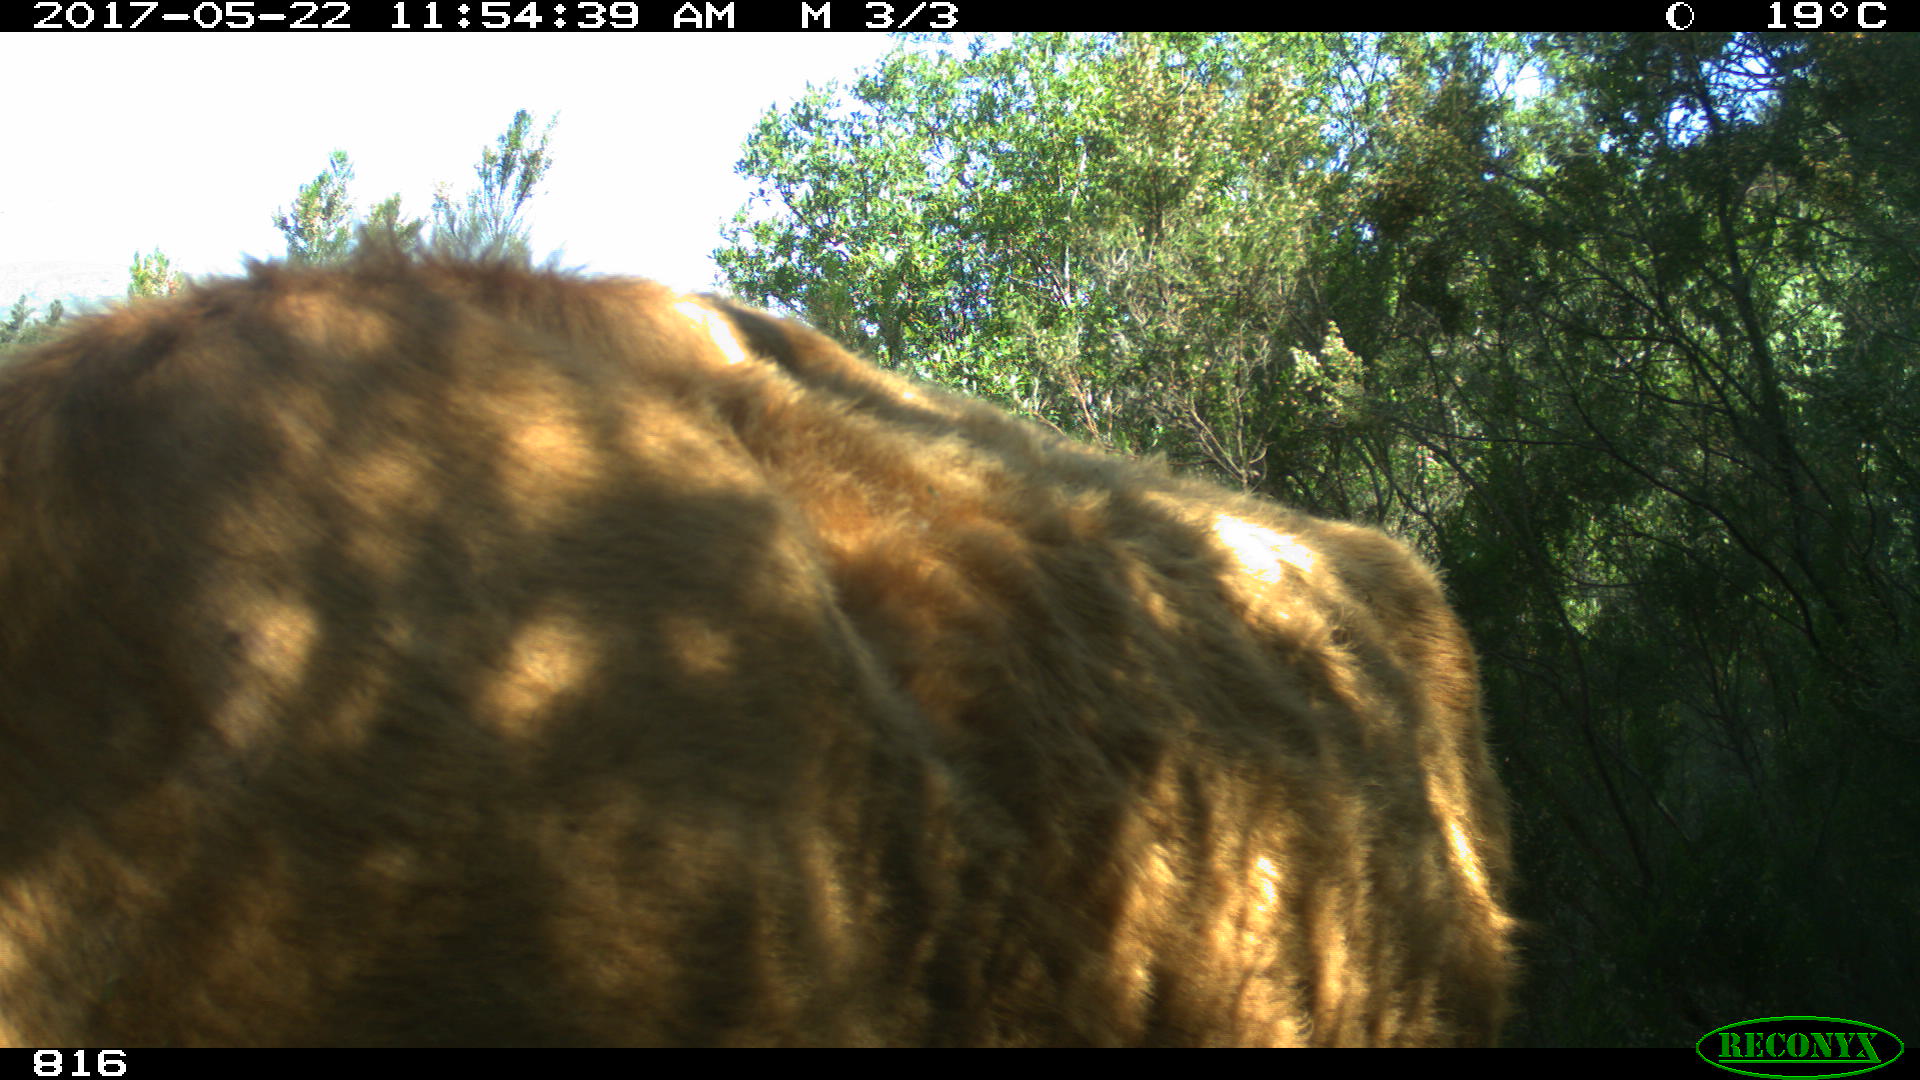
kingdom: Animalia
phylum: Chordata
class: Mammalia
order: Artiodactyla
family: Bovidae
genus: Bos
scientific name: Bos taurus
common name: Domesticated cattle
